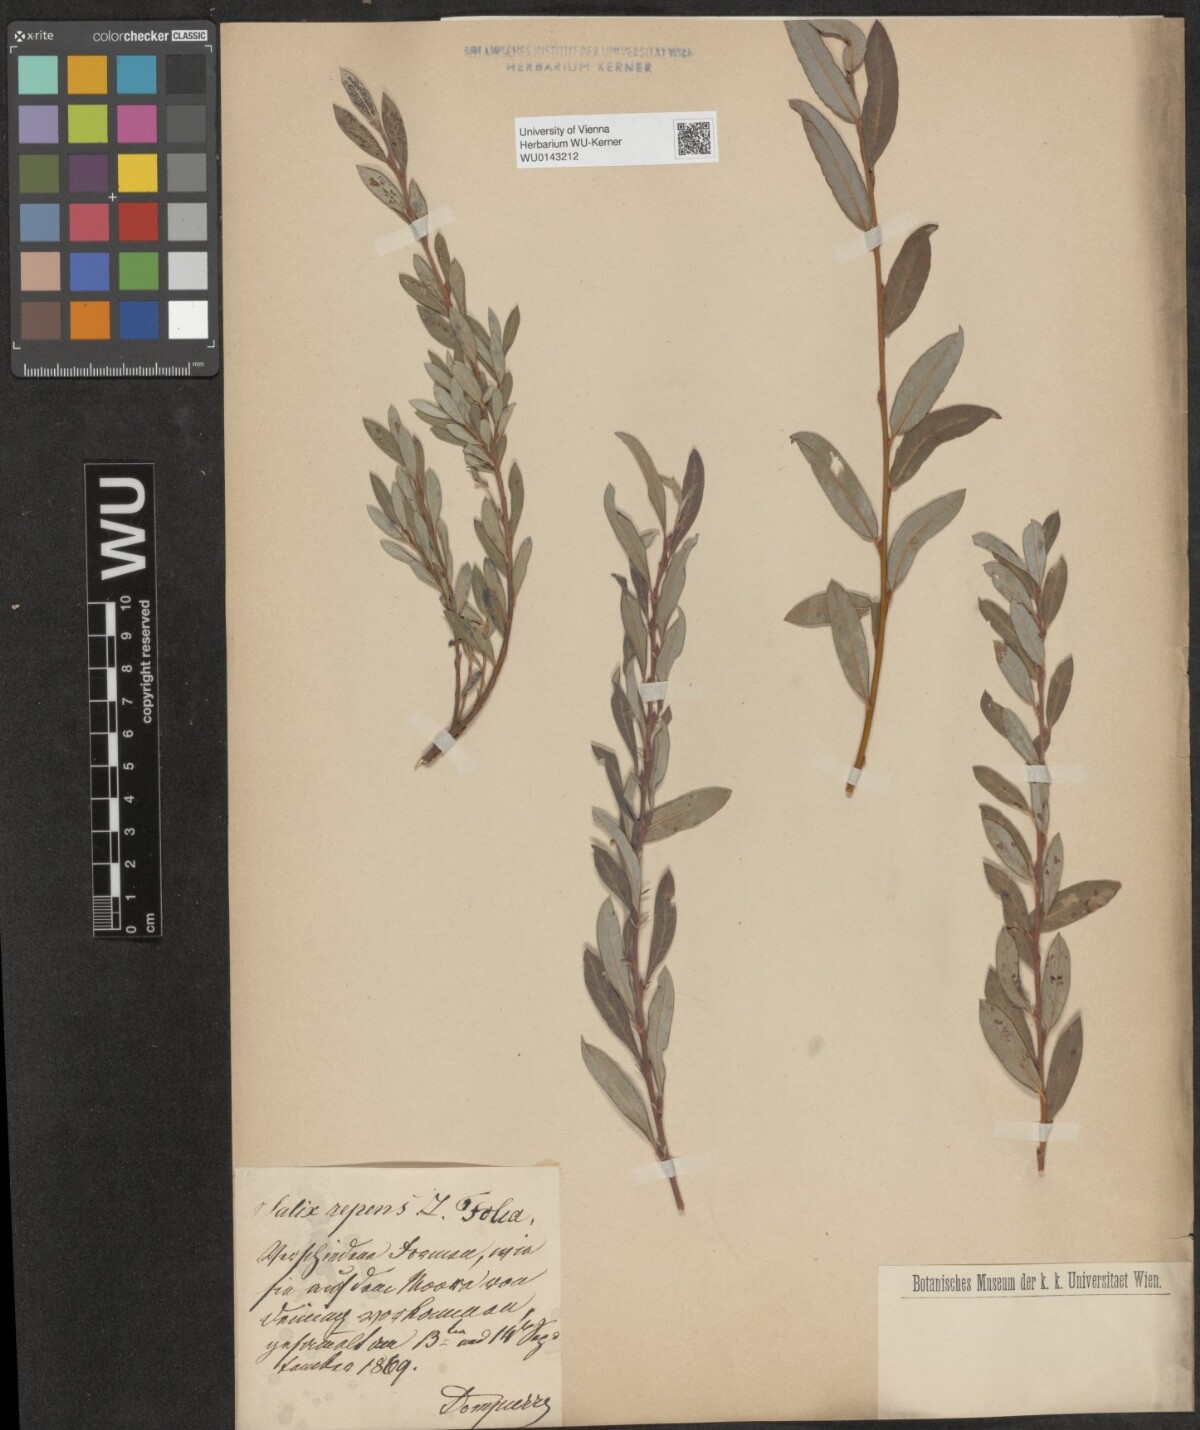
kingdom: Plantae
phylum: Tracheophyta
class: Magnoliopsida
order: Malpighiales
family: Salicaceae
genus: Salix
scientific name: Salix repens
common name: Creeping willow
